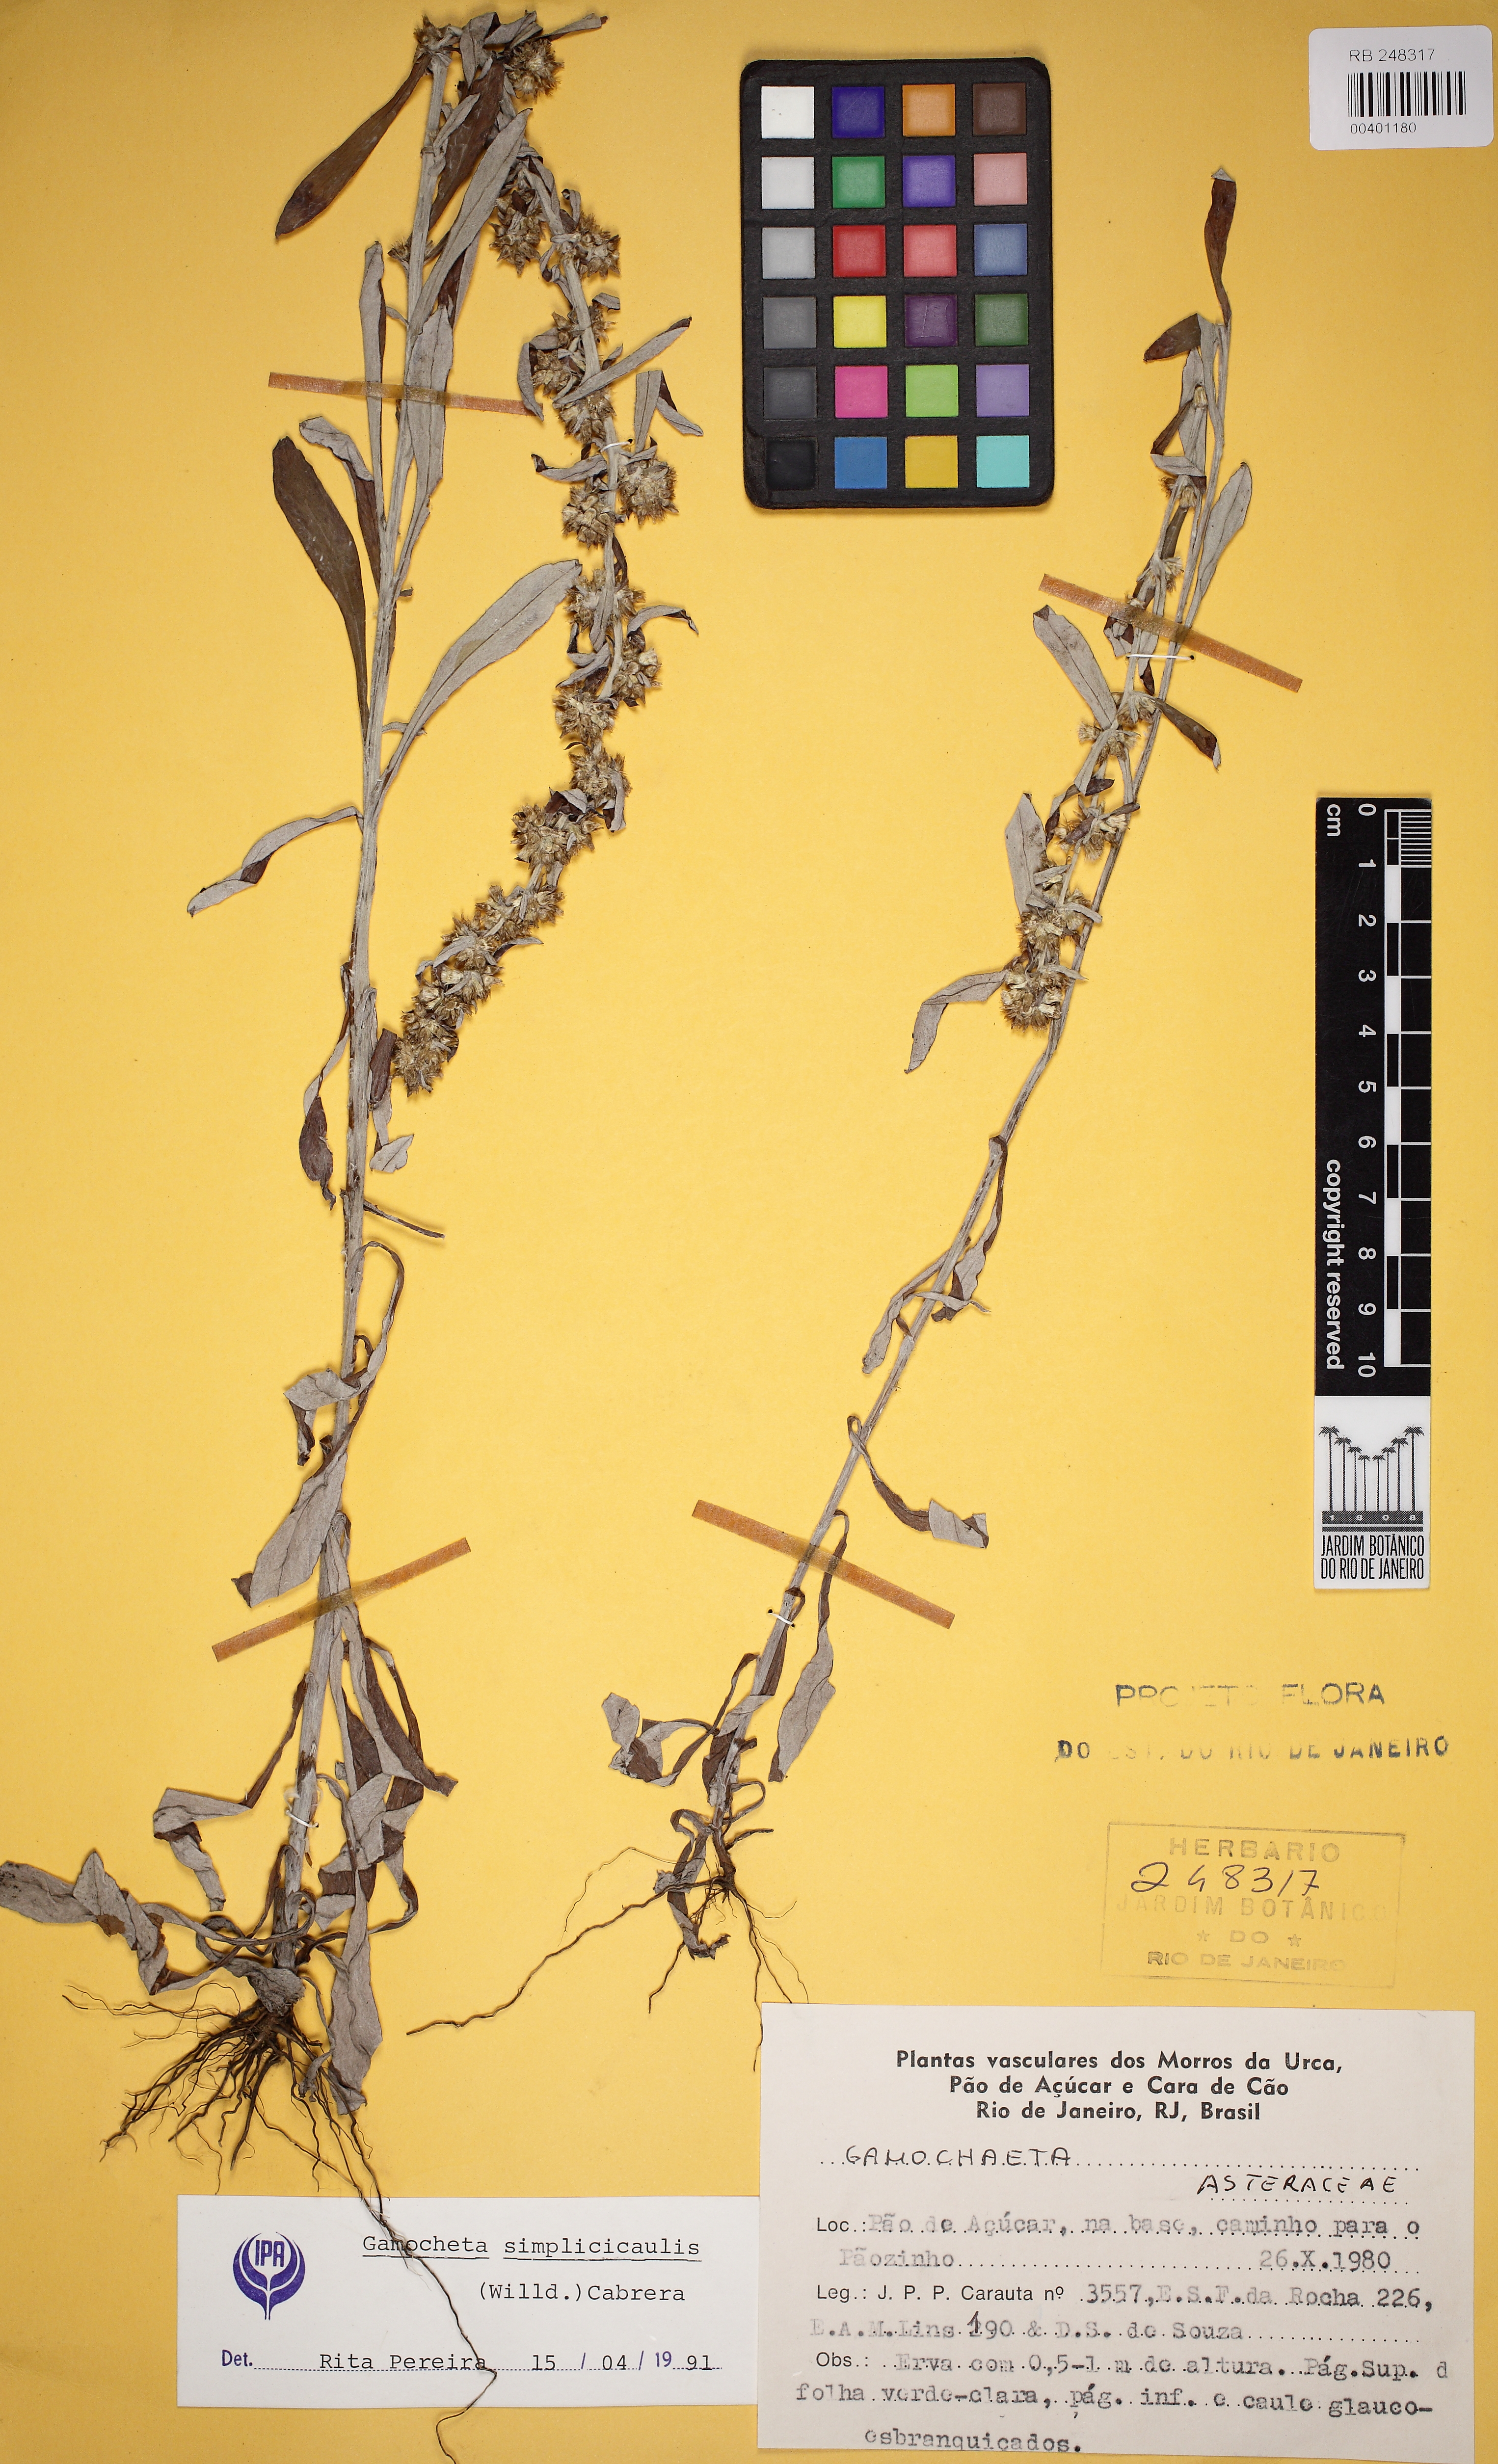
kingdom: Plantae
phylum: Tracheophyta
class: Magnoliopsida
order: Asterales
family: Asteraceae
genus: Gamochaeta
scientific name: Gamochaeta simplicicaulis
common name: Simple-stem everlasting
